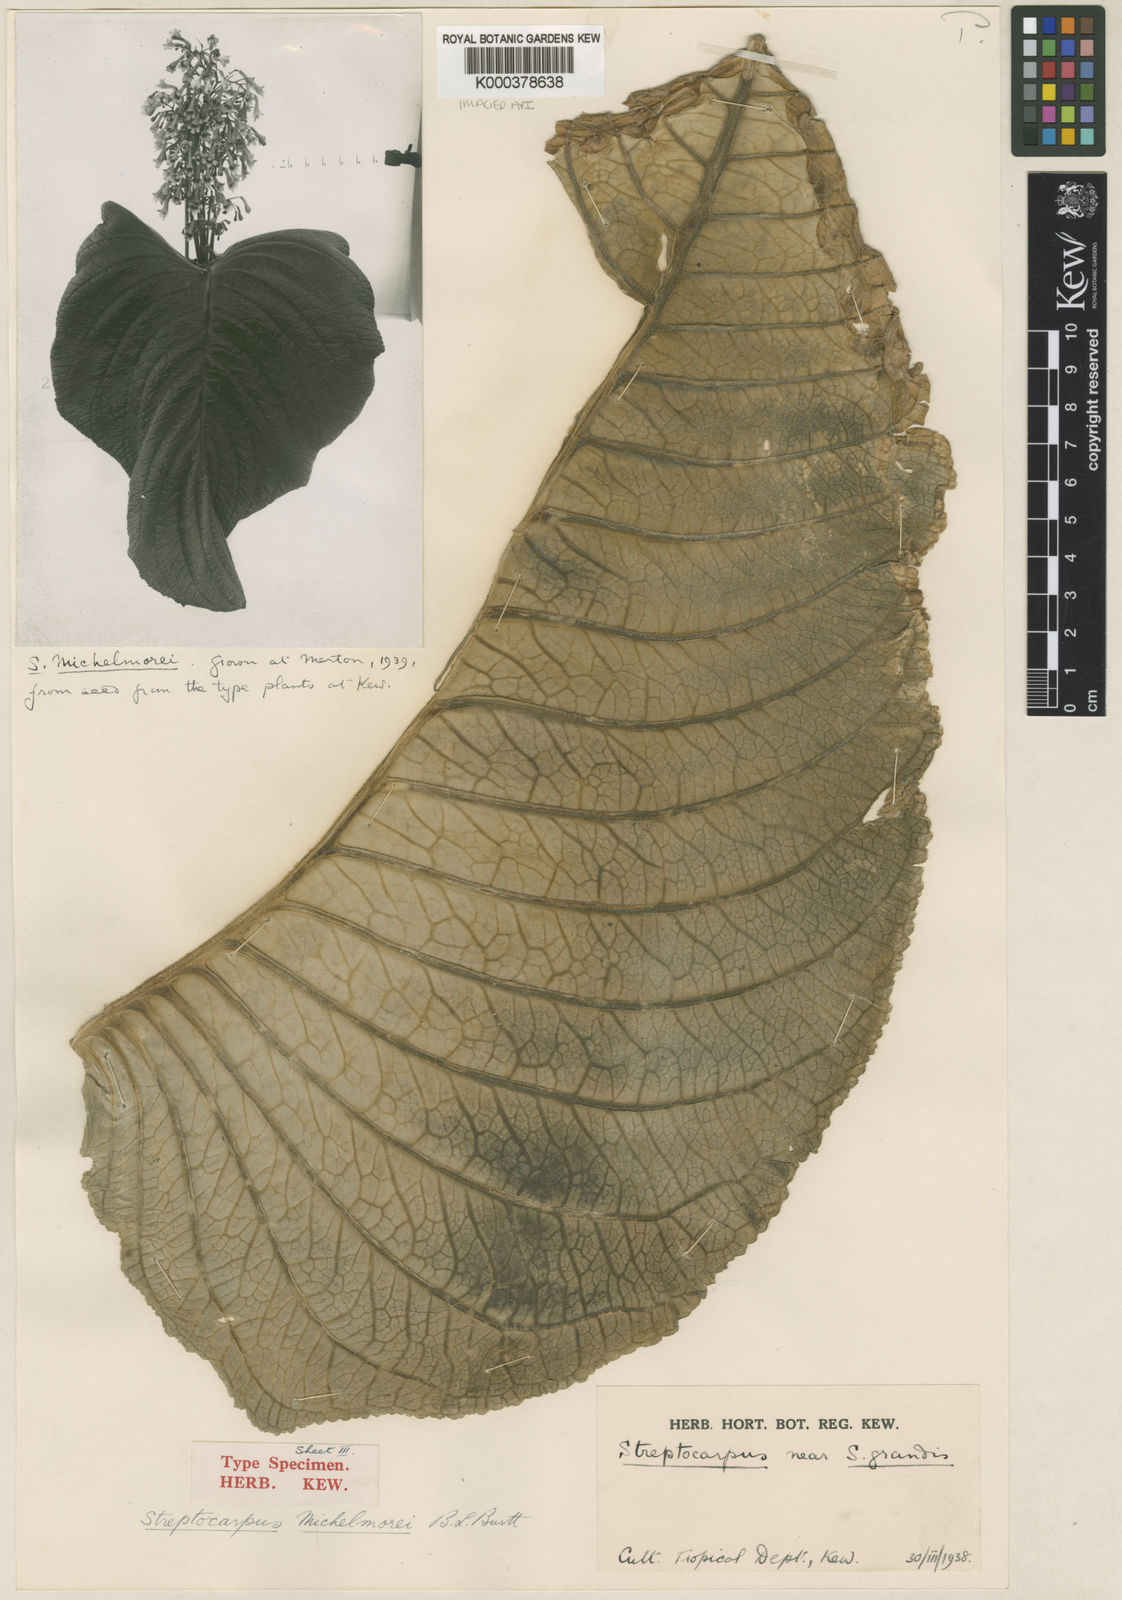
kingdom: Plantae
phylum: Tracheophyta
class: Magnoliopsida
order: Lamiales
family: Gesneriaceae
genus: Streptocarpus
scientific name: Streptocarpus michelmorei
